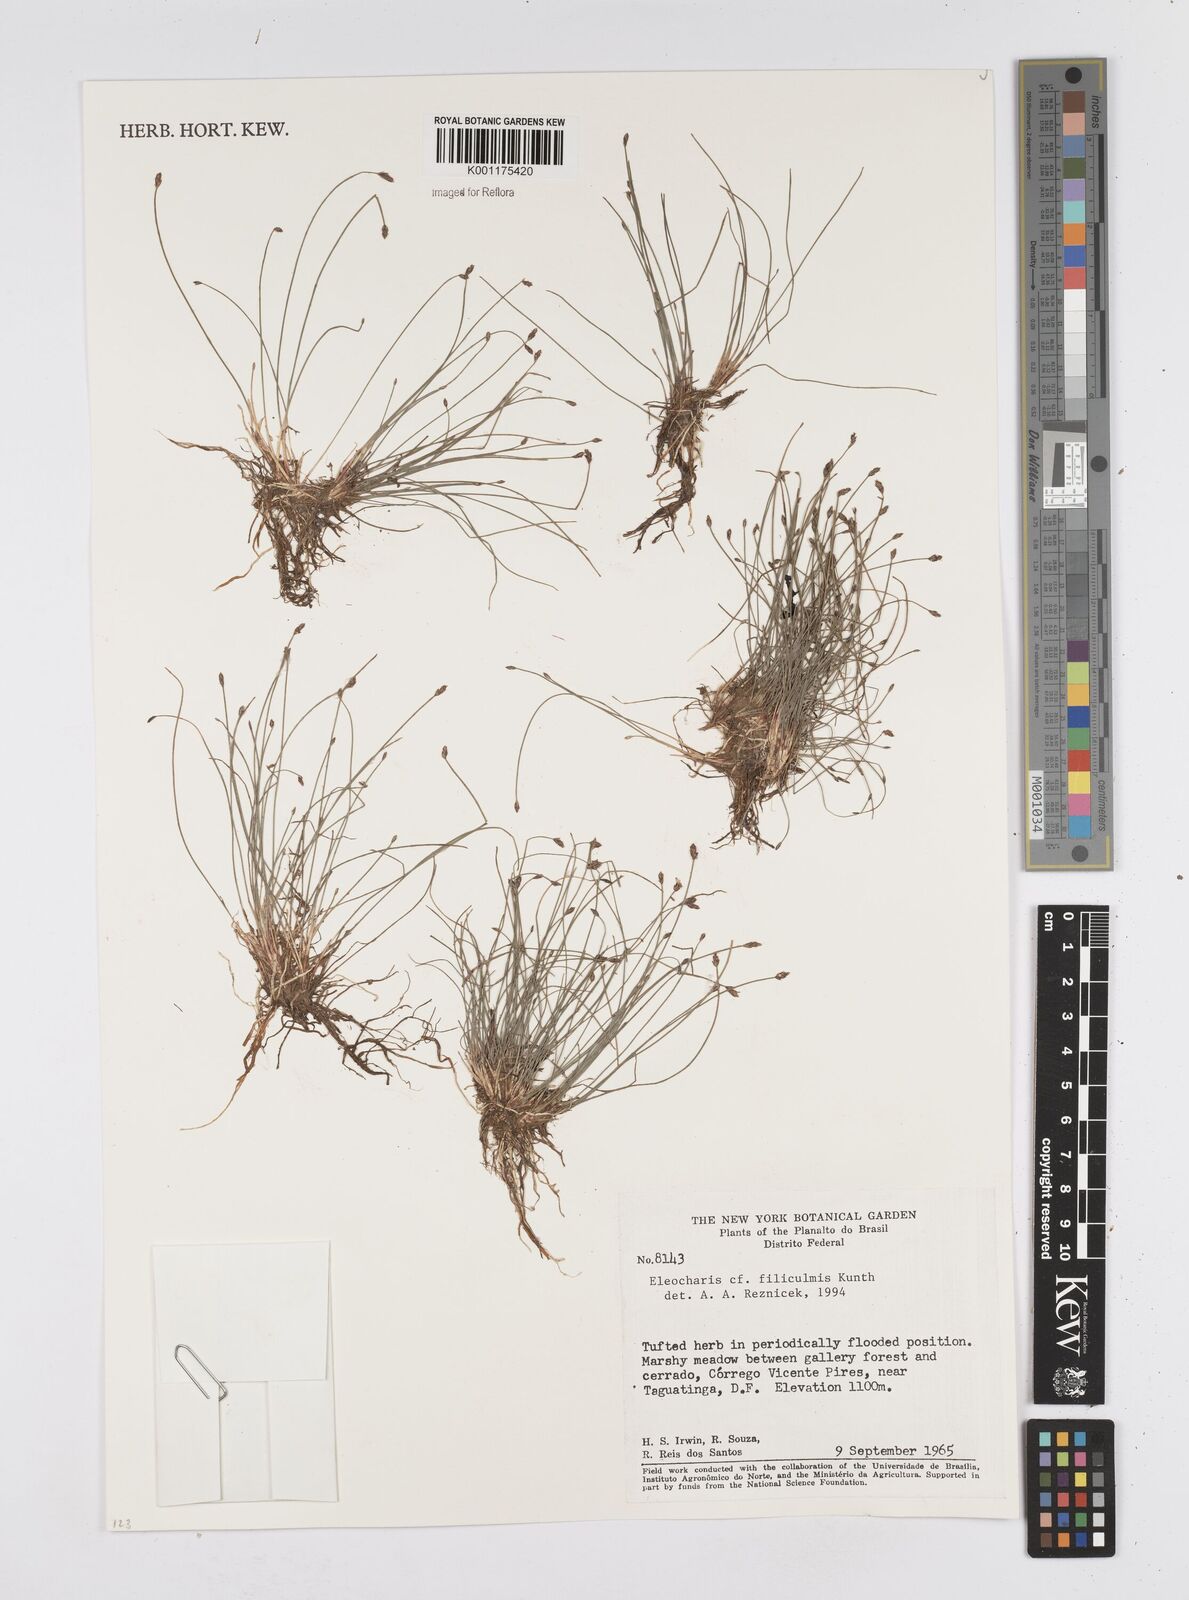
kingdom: Plantae
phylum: Tracheophyta
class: Liliopsida
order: Poales
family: Cyperaceae
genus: Eleocharis
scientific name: Eleocharis filiculmis
